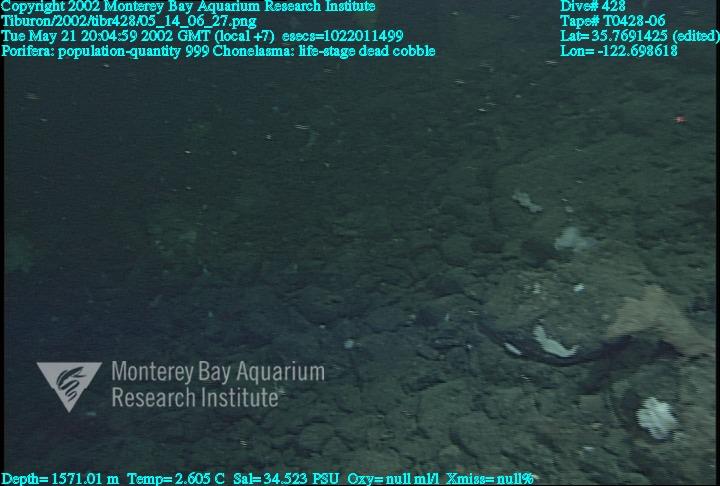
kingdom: Animalia
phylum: Porifera
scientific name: Porifera
